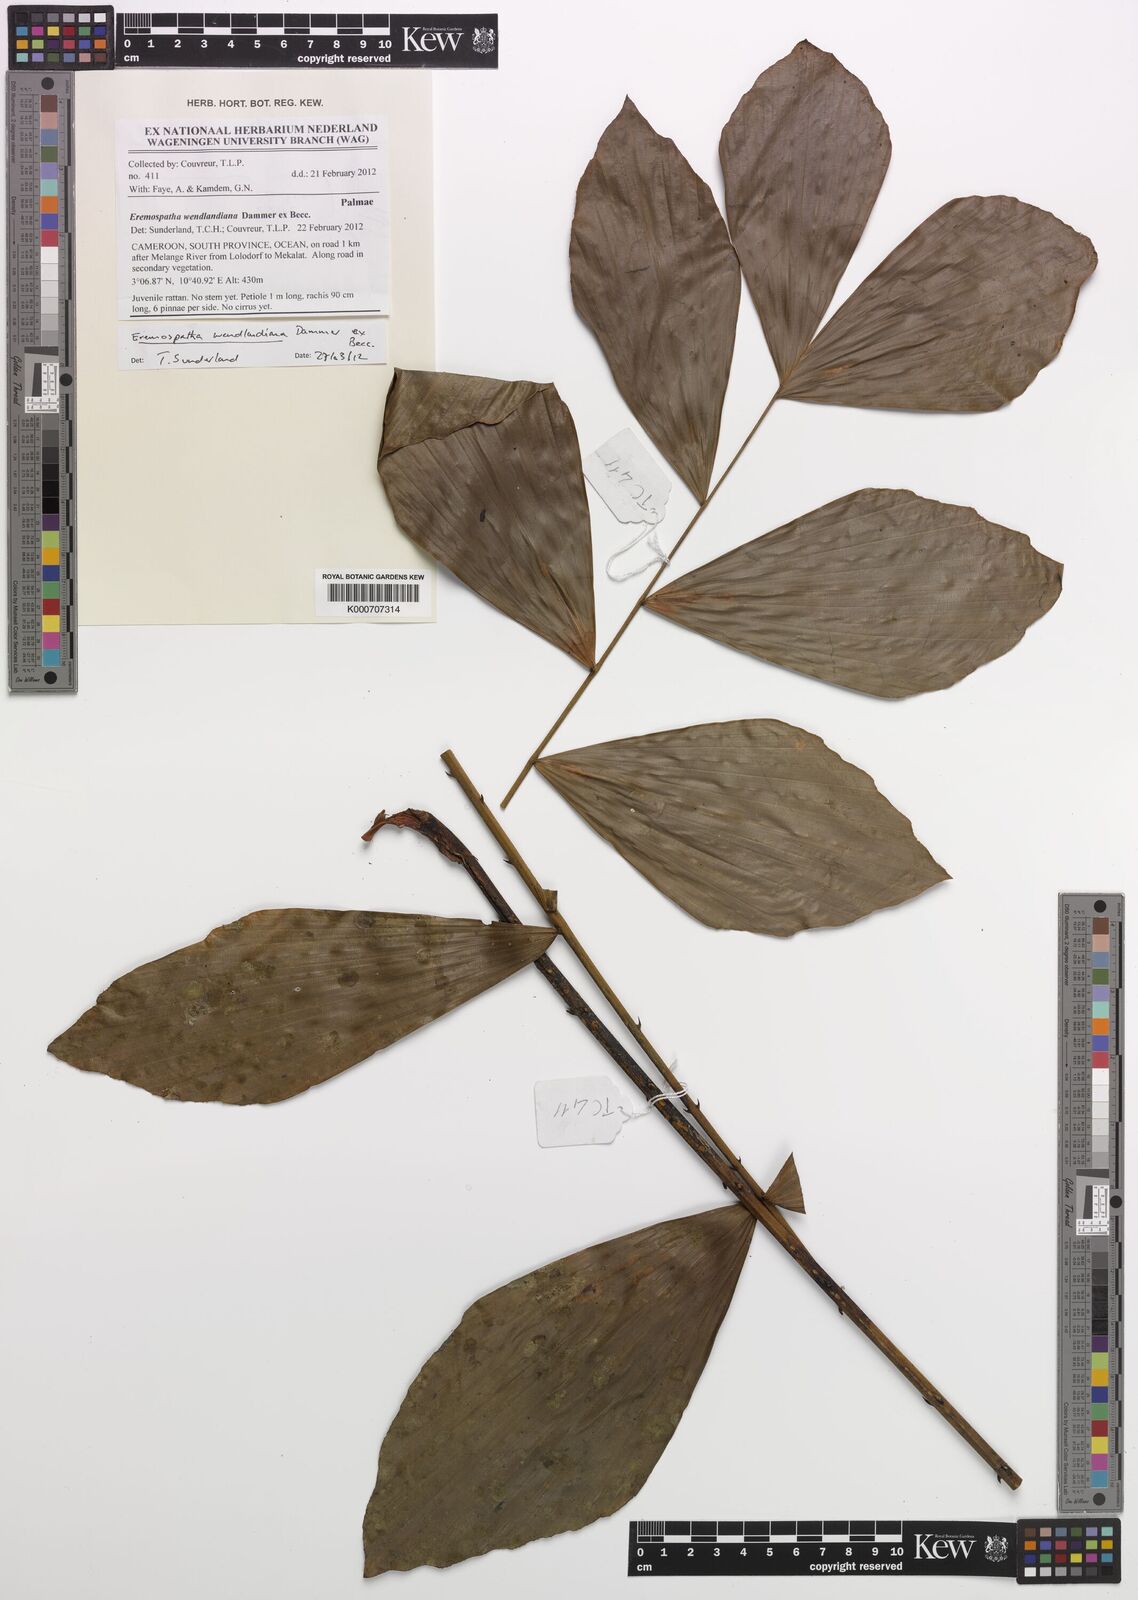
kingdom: Plantae
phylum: Tracheophyta
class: Liliopsida
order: Arecales
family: Arecaceae
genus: Eremospatha
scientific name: Eremospatha wendlandiana
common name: Rattan
